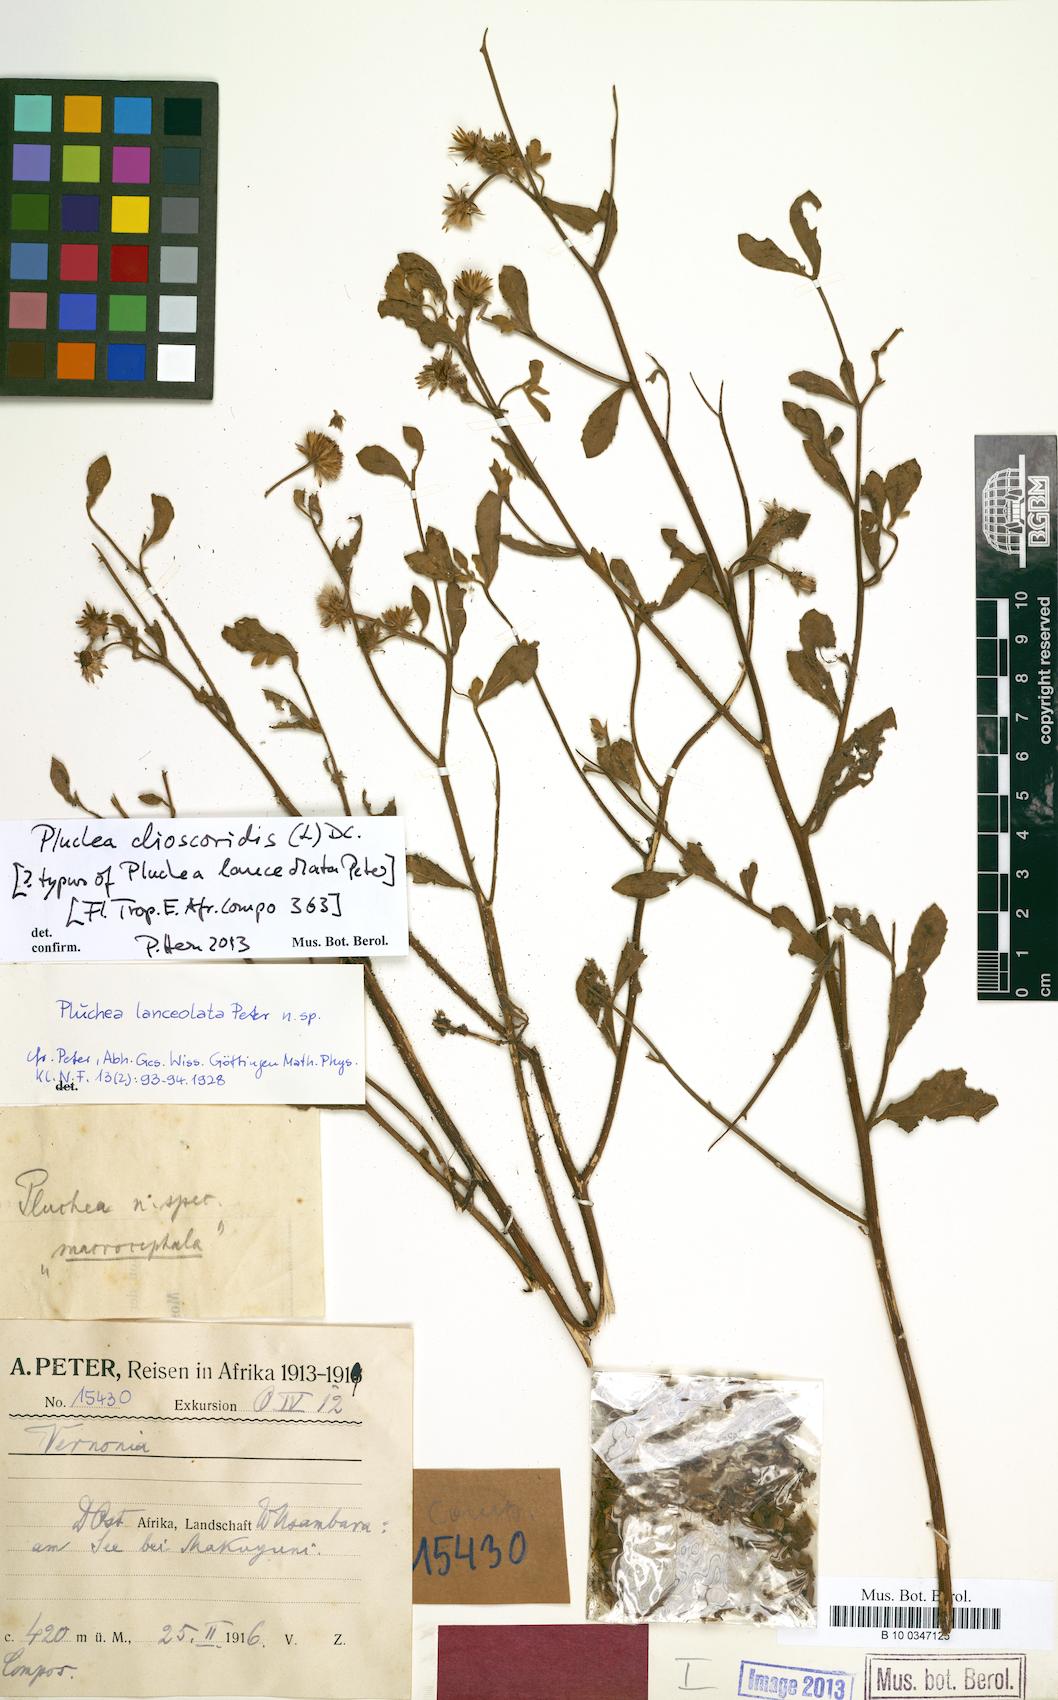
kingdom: Plantae
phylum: Tracheophyta
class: Magnoliopsida
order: Asterales
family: Asteraceae
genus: Pluchea
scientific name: Pluchea dioscoridis
